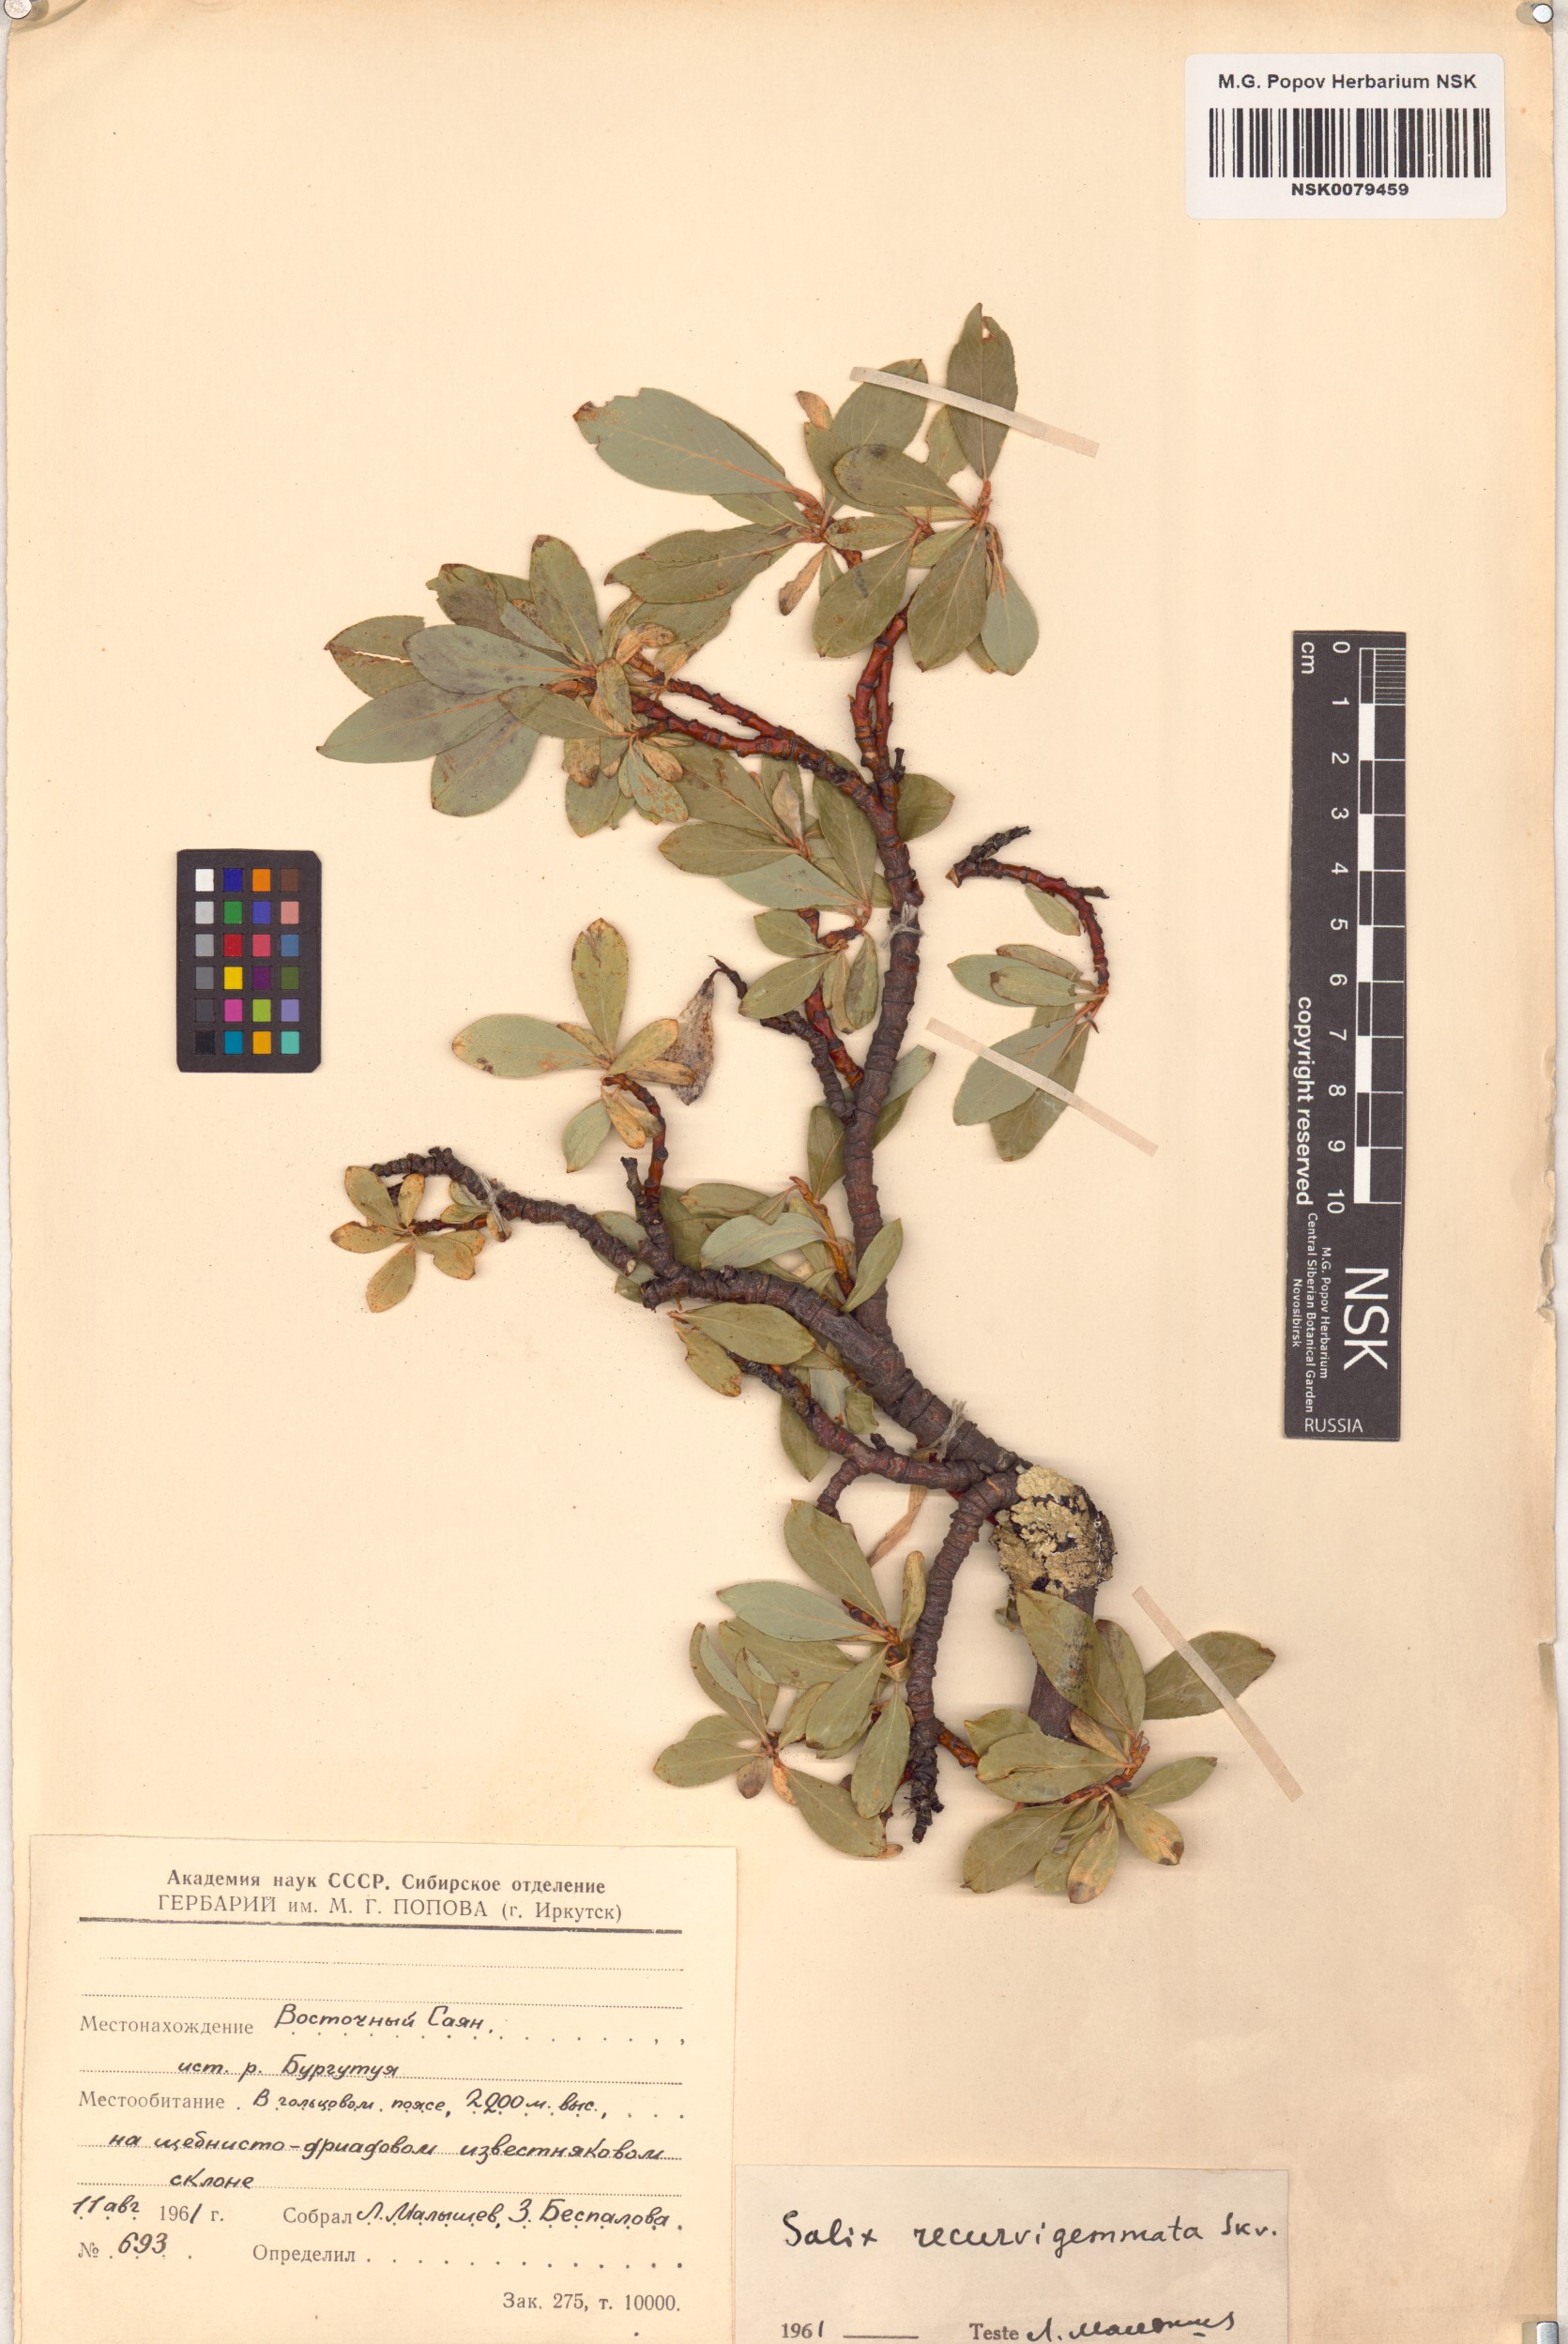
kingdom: Plantae
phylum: Tracheophyta
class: Magnoliopsida
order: Malpighiales
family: Salicaceae
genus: Salix
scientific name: Salix recurvigemmata
